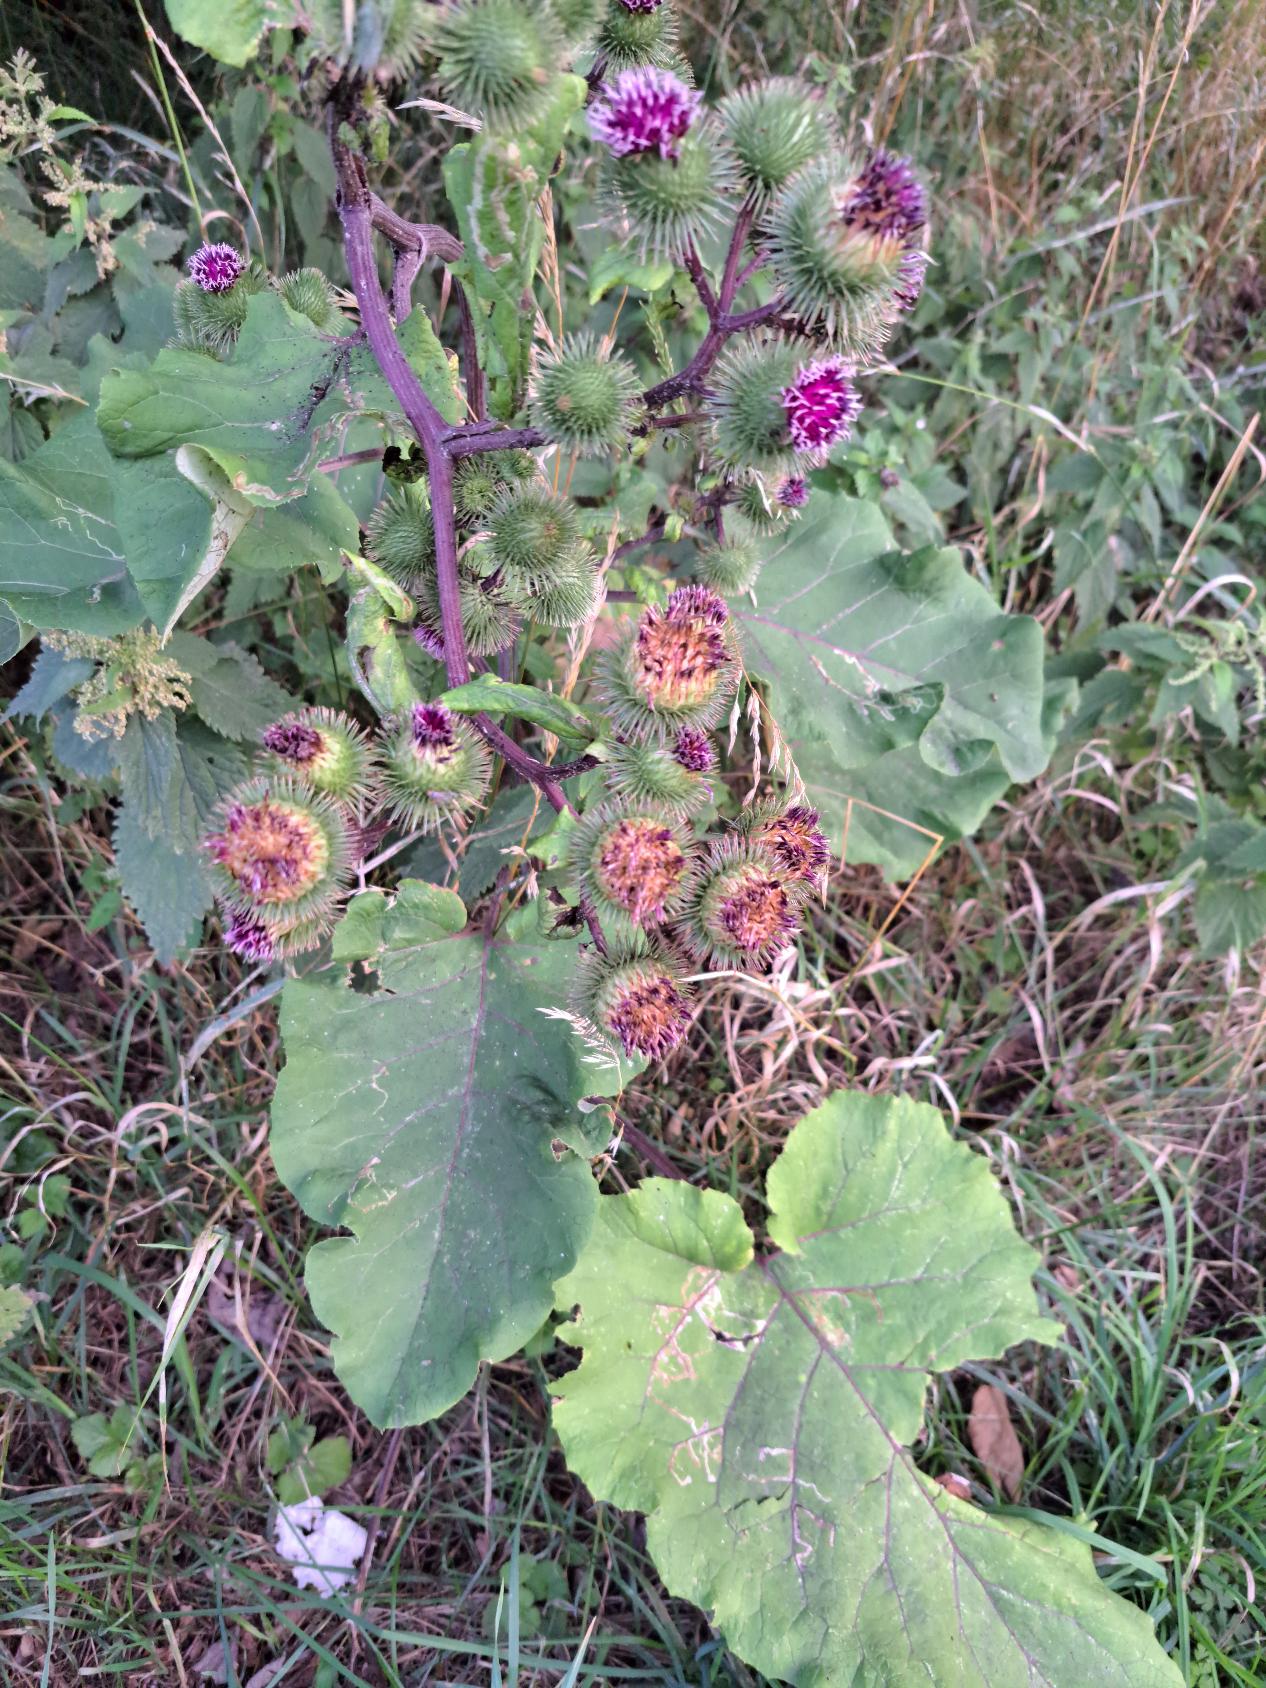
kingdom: Plantae
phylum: Tracheophyta
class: Magnoliopsida
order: Asterales
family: Asteraceae
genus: Arctium
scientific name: Arctium lappa
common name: Glat burre
